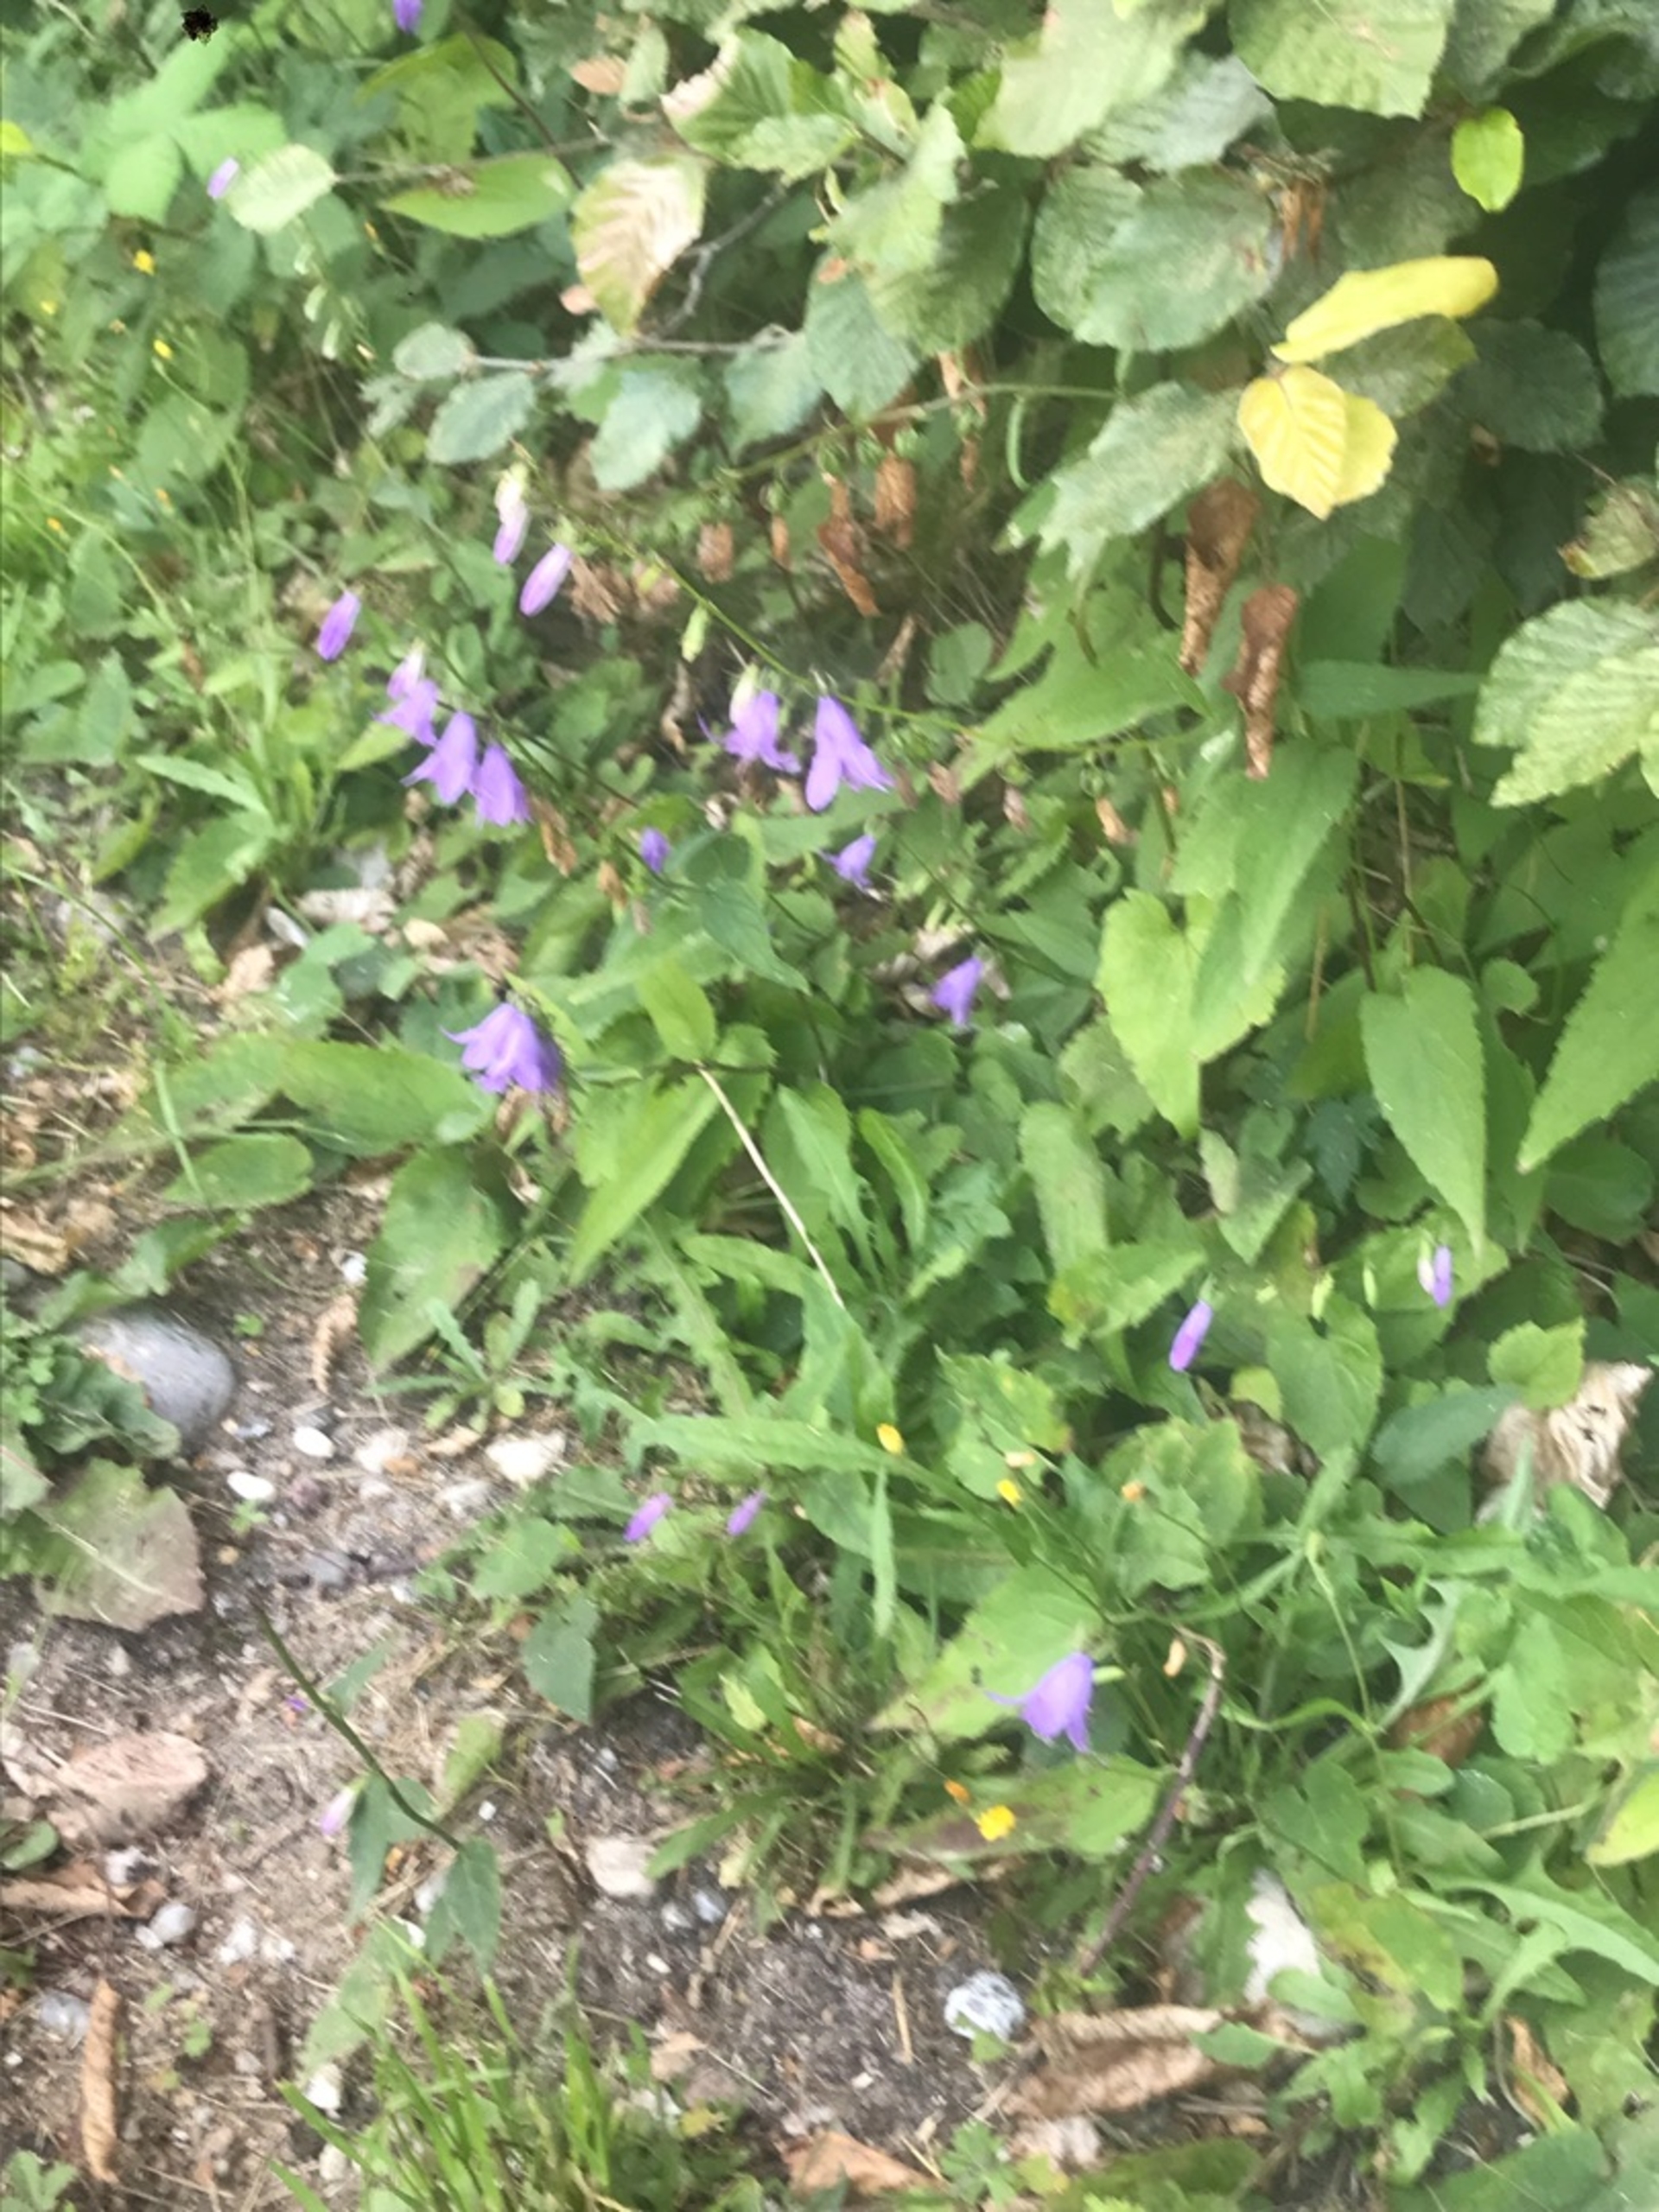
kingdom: Plantae
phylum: Tracheophyta
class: Magnoliopsida
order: Asterales
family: Campanulaceae
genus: Campanula
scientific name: Campanula rapunculoides
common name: Ensidig klokke
